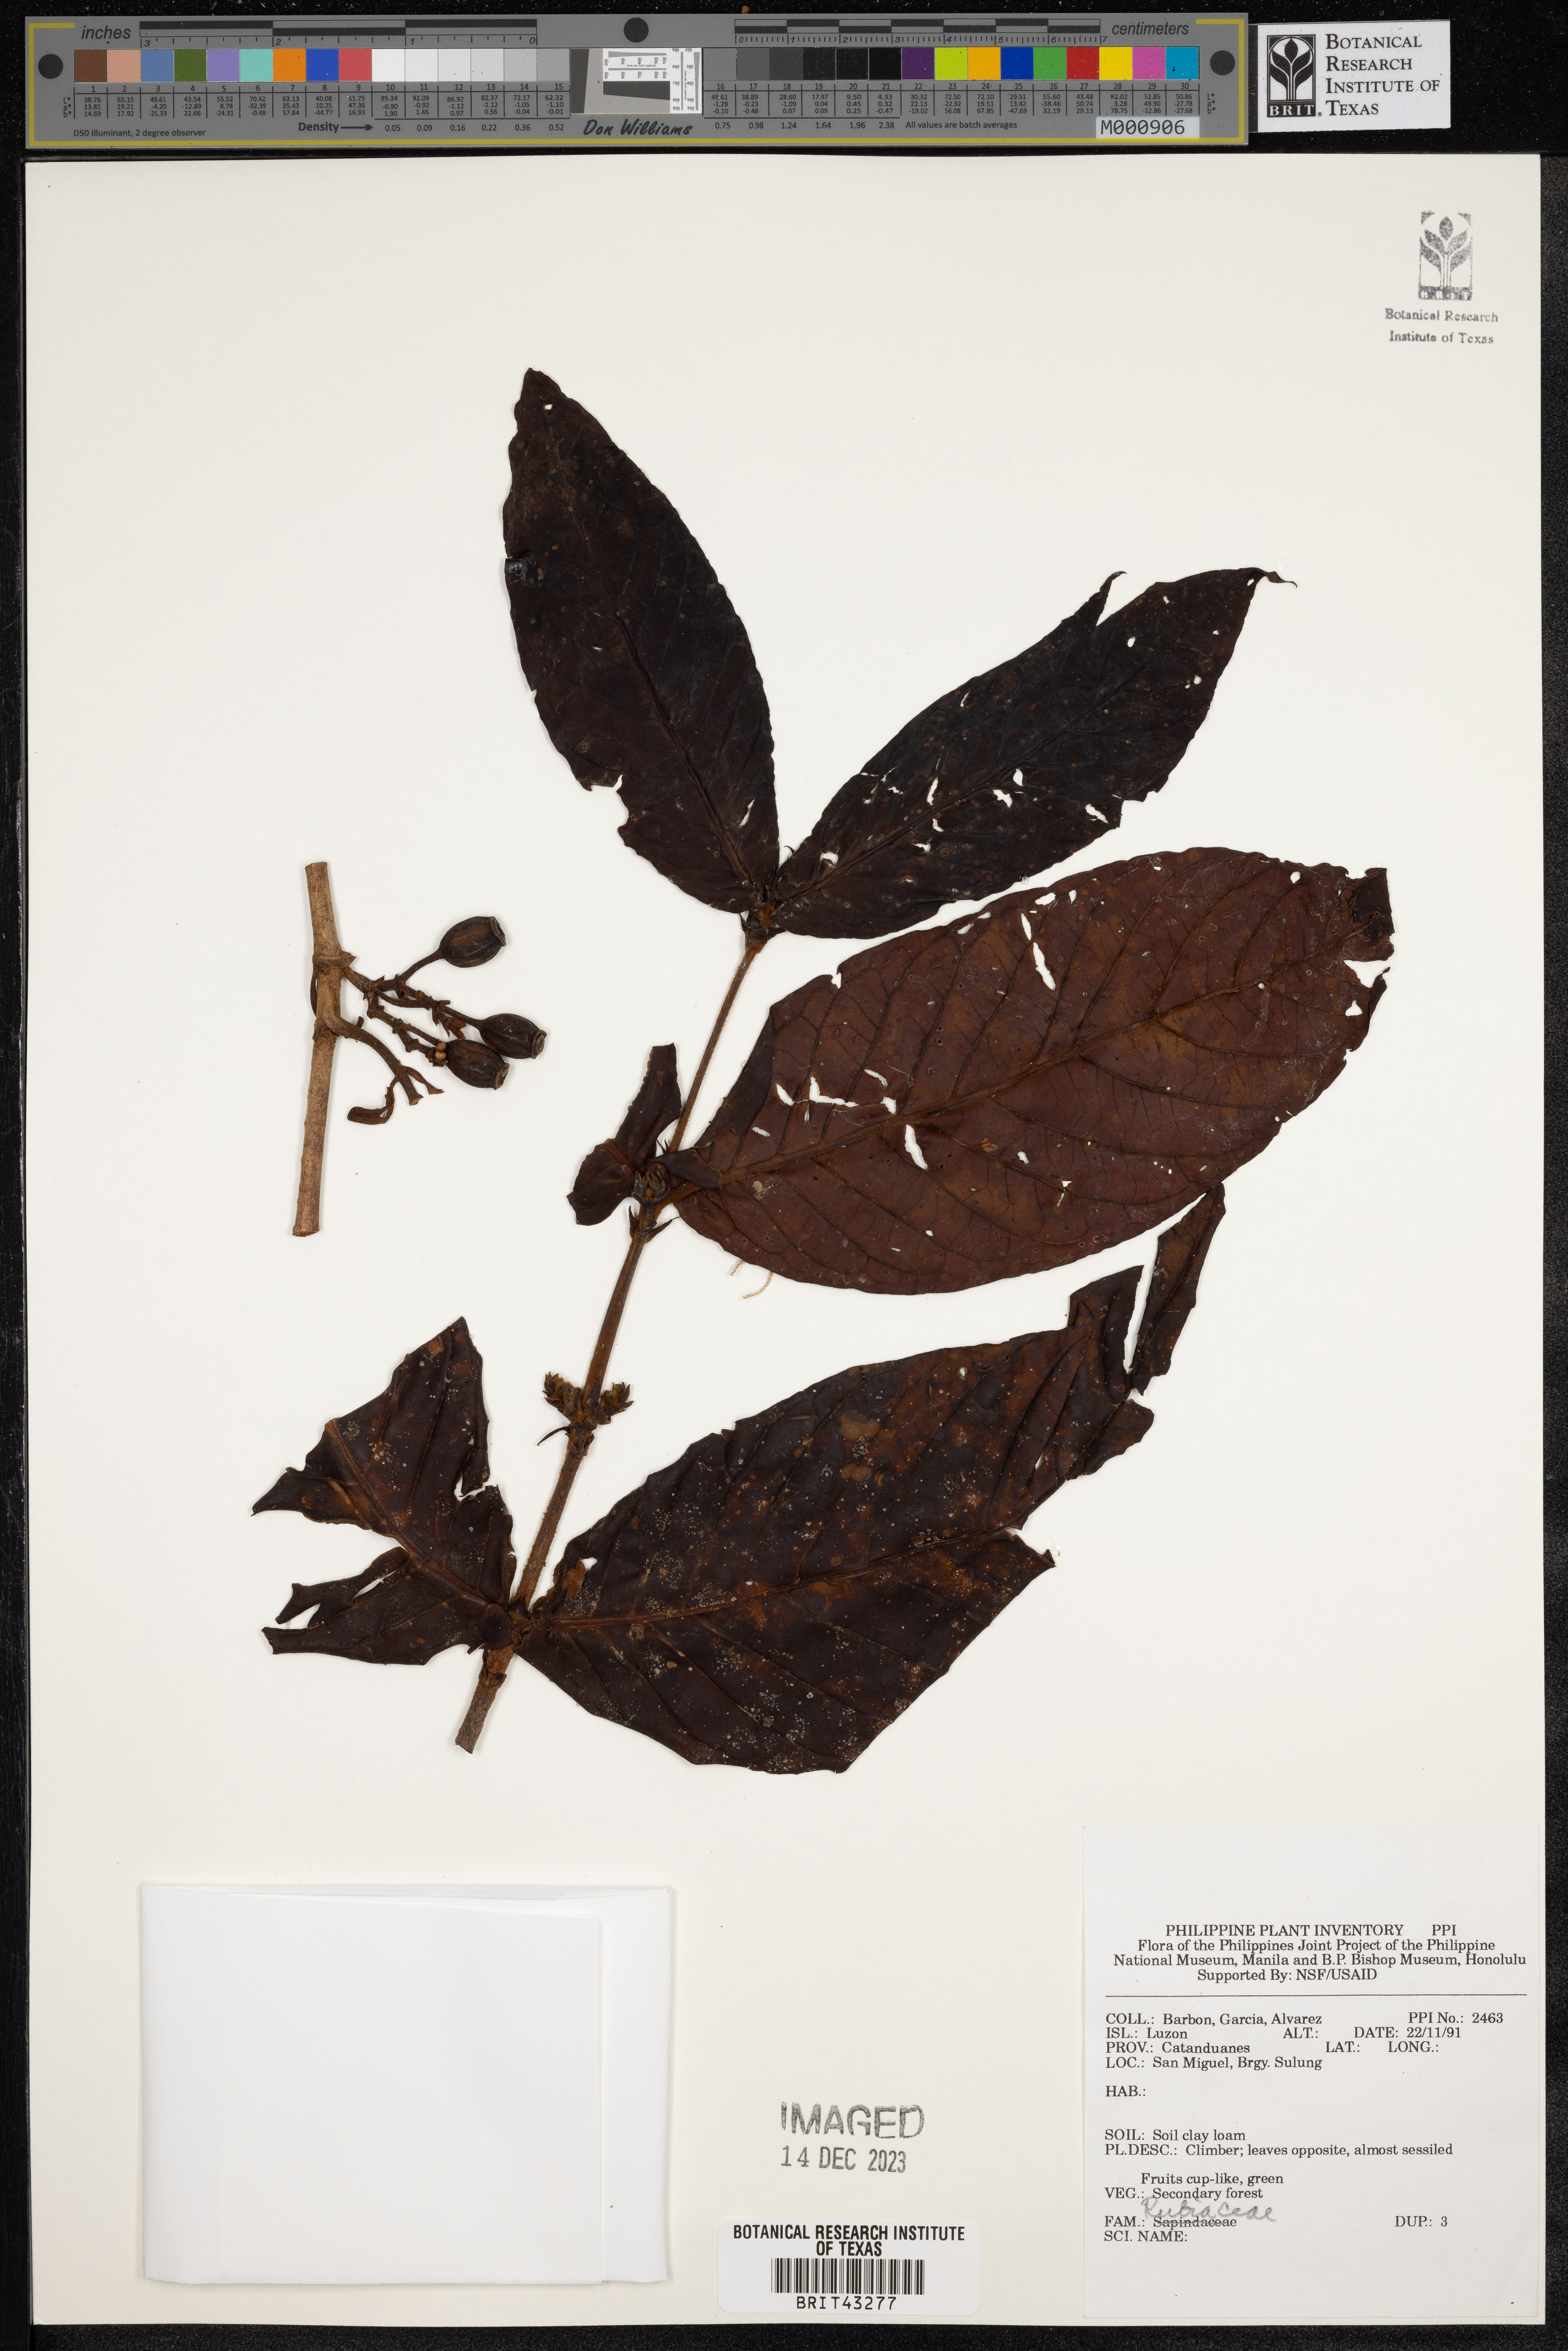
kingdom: Plantae
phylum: Tracheophyta
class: Magnoliopsida
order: Gentianales
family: Rubiaceae
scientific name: Rubiaceae
